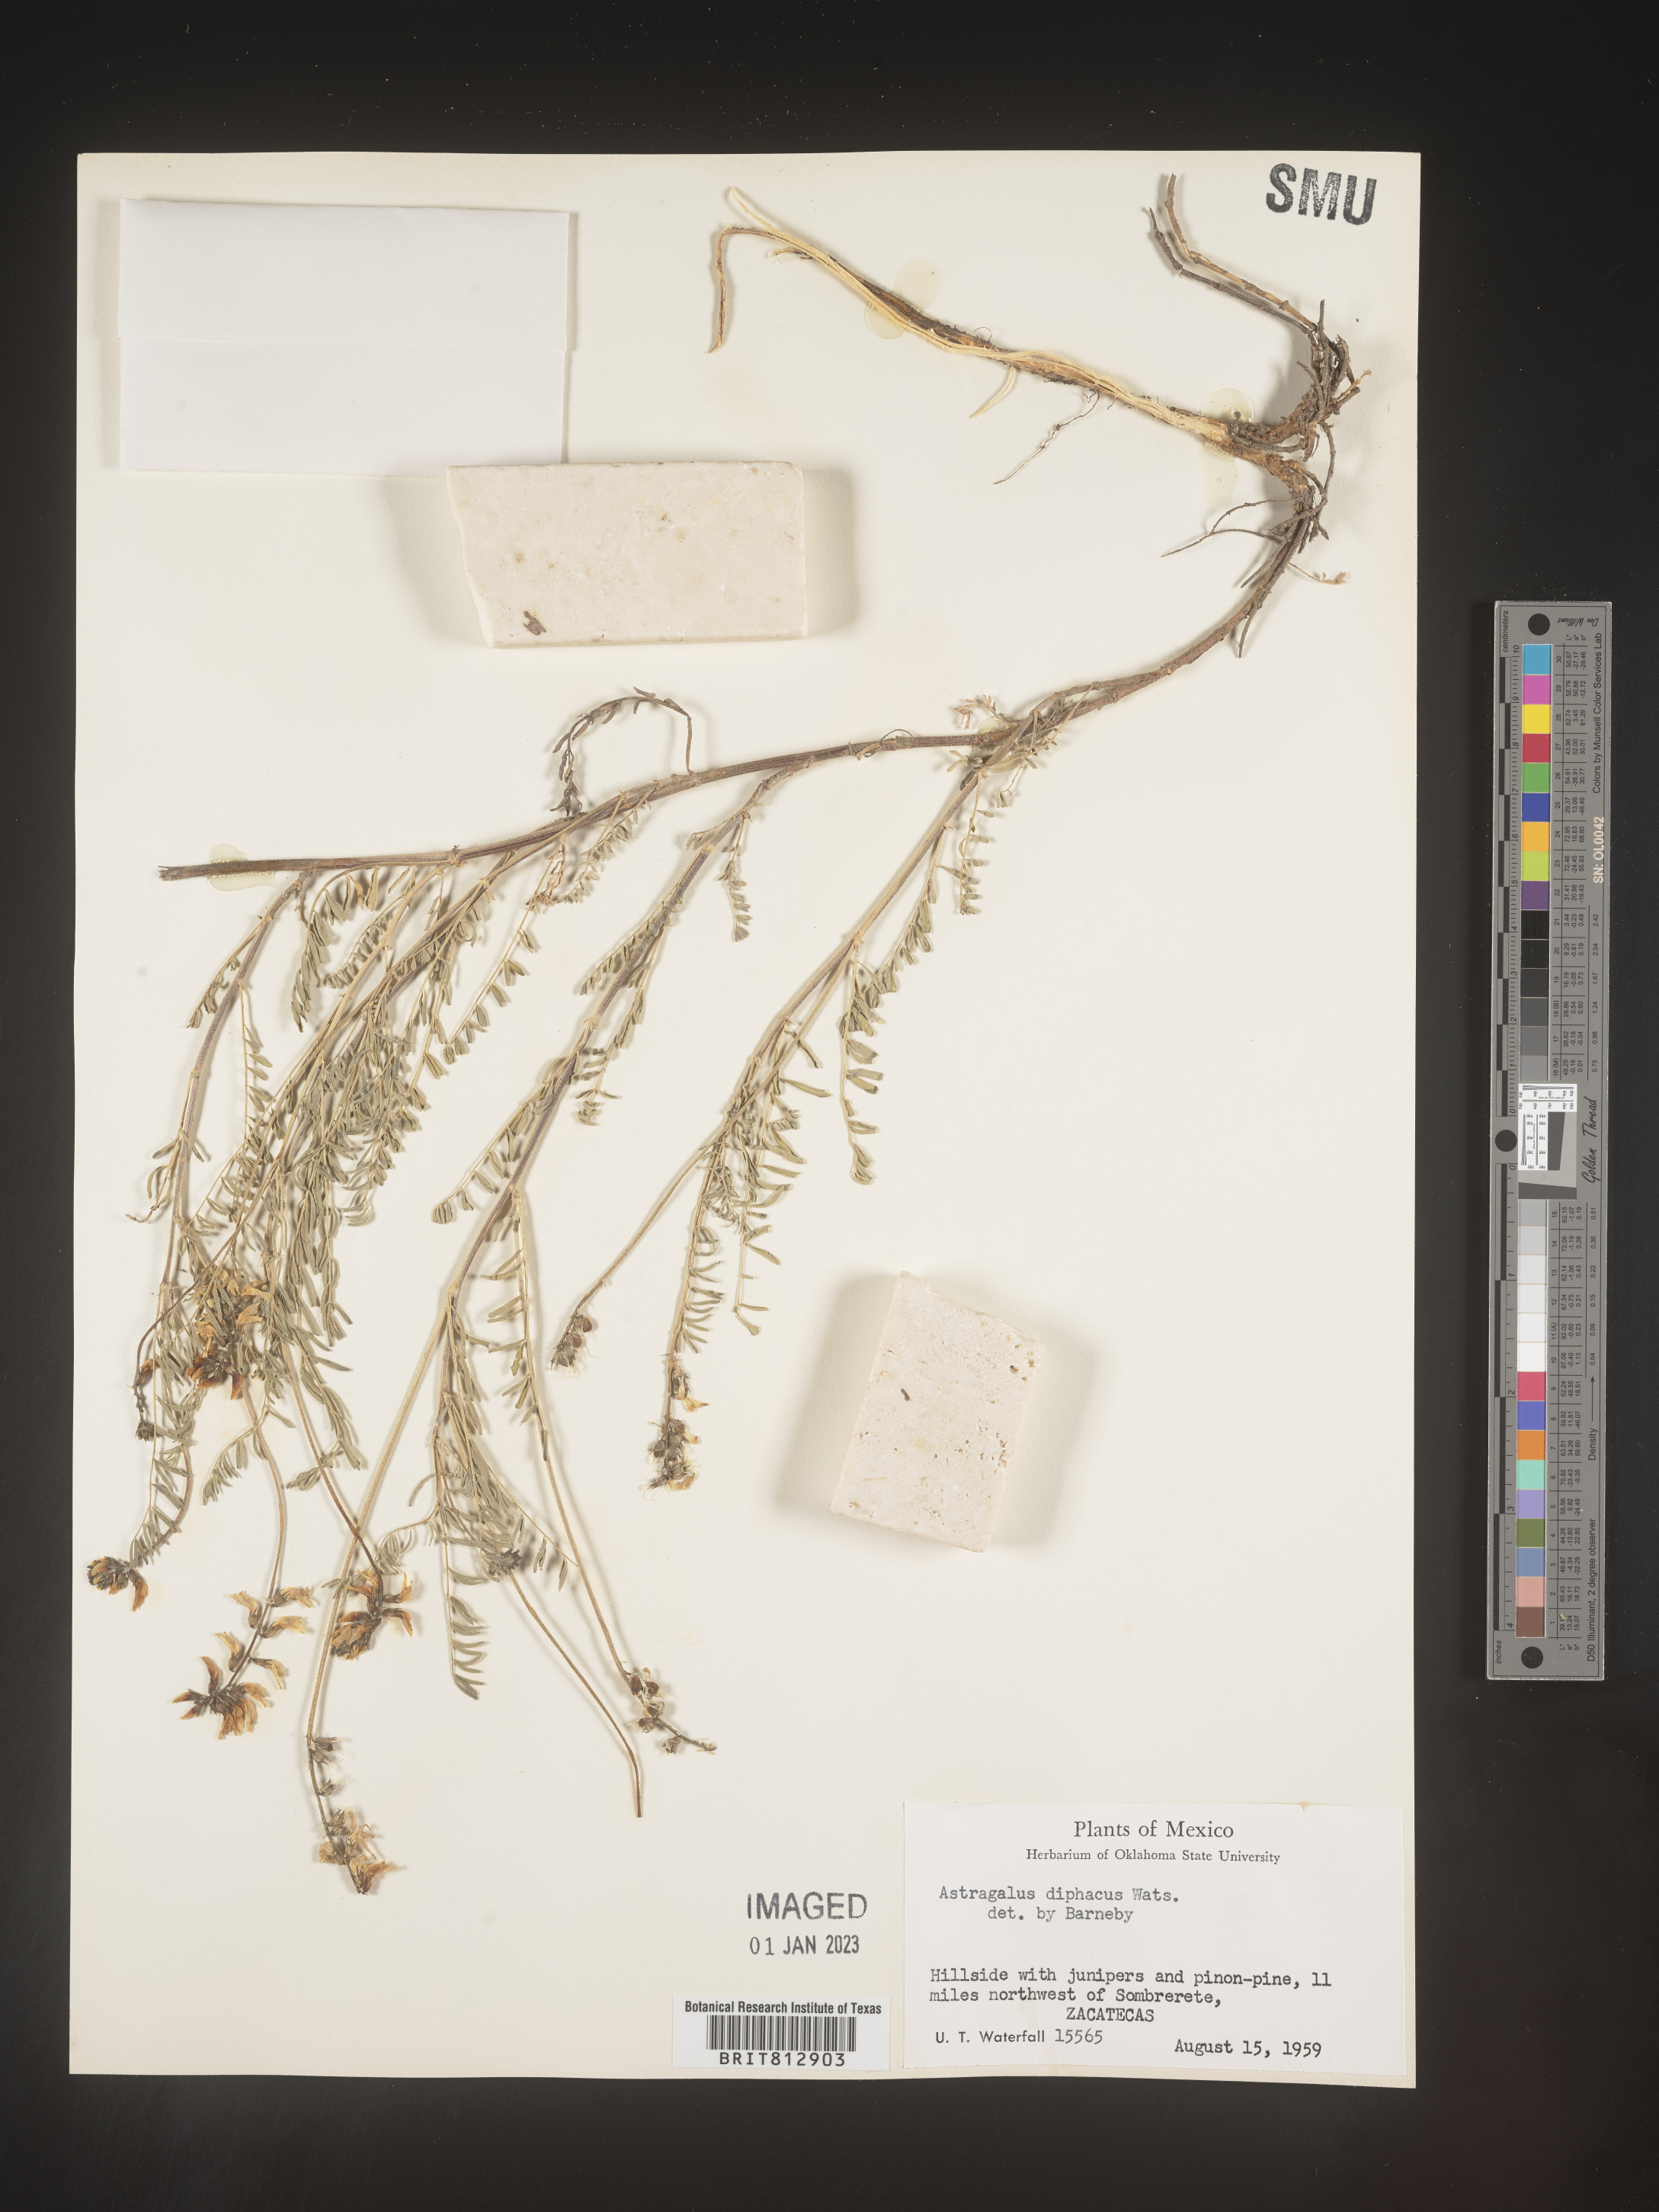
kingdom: Plantae
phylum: Tracheophyta
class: Magnoliopsida
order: Fabales
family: Fabaceae
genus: Astragalus
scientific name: Astragalus
